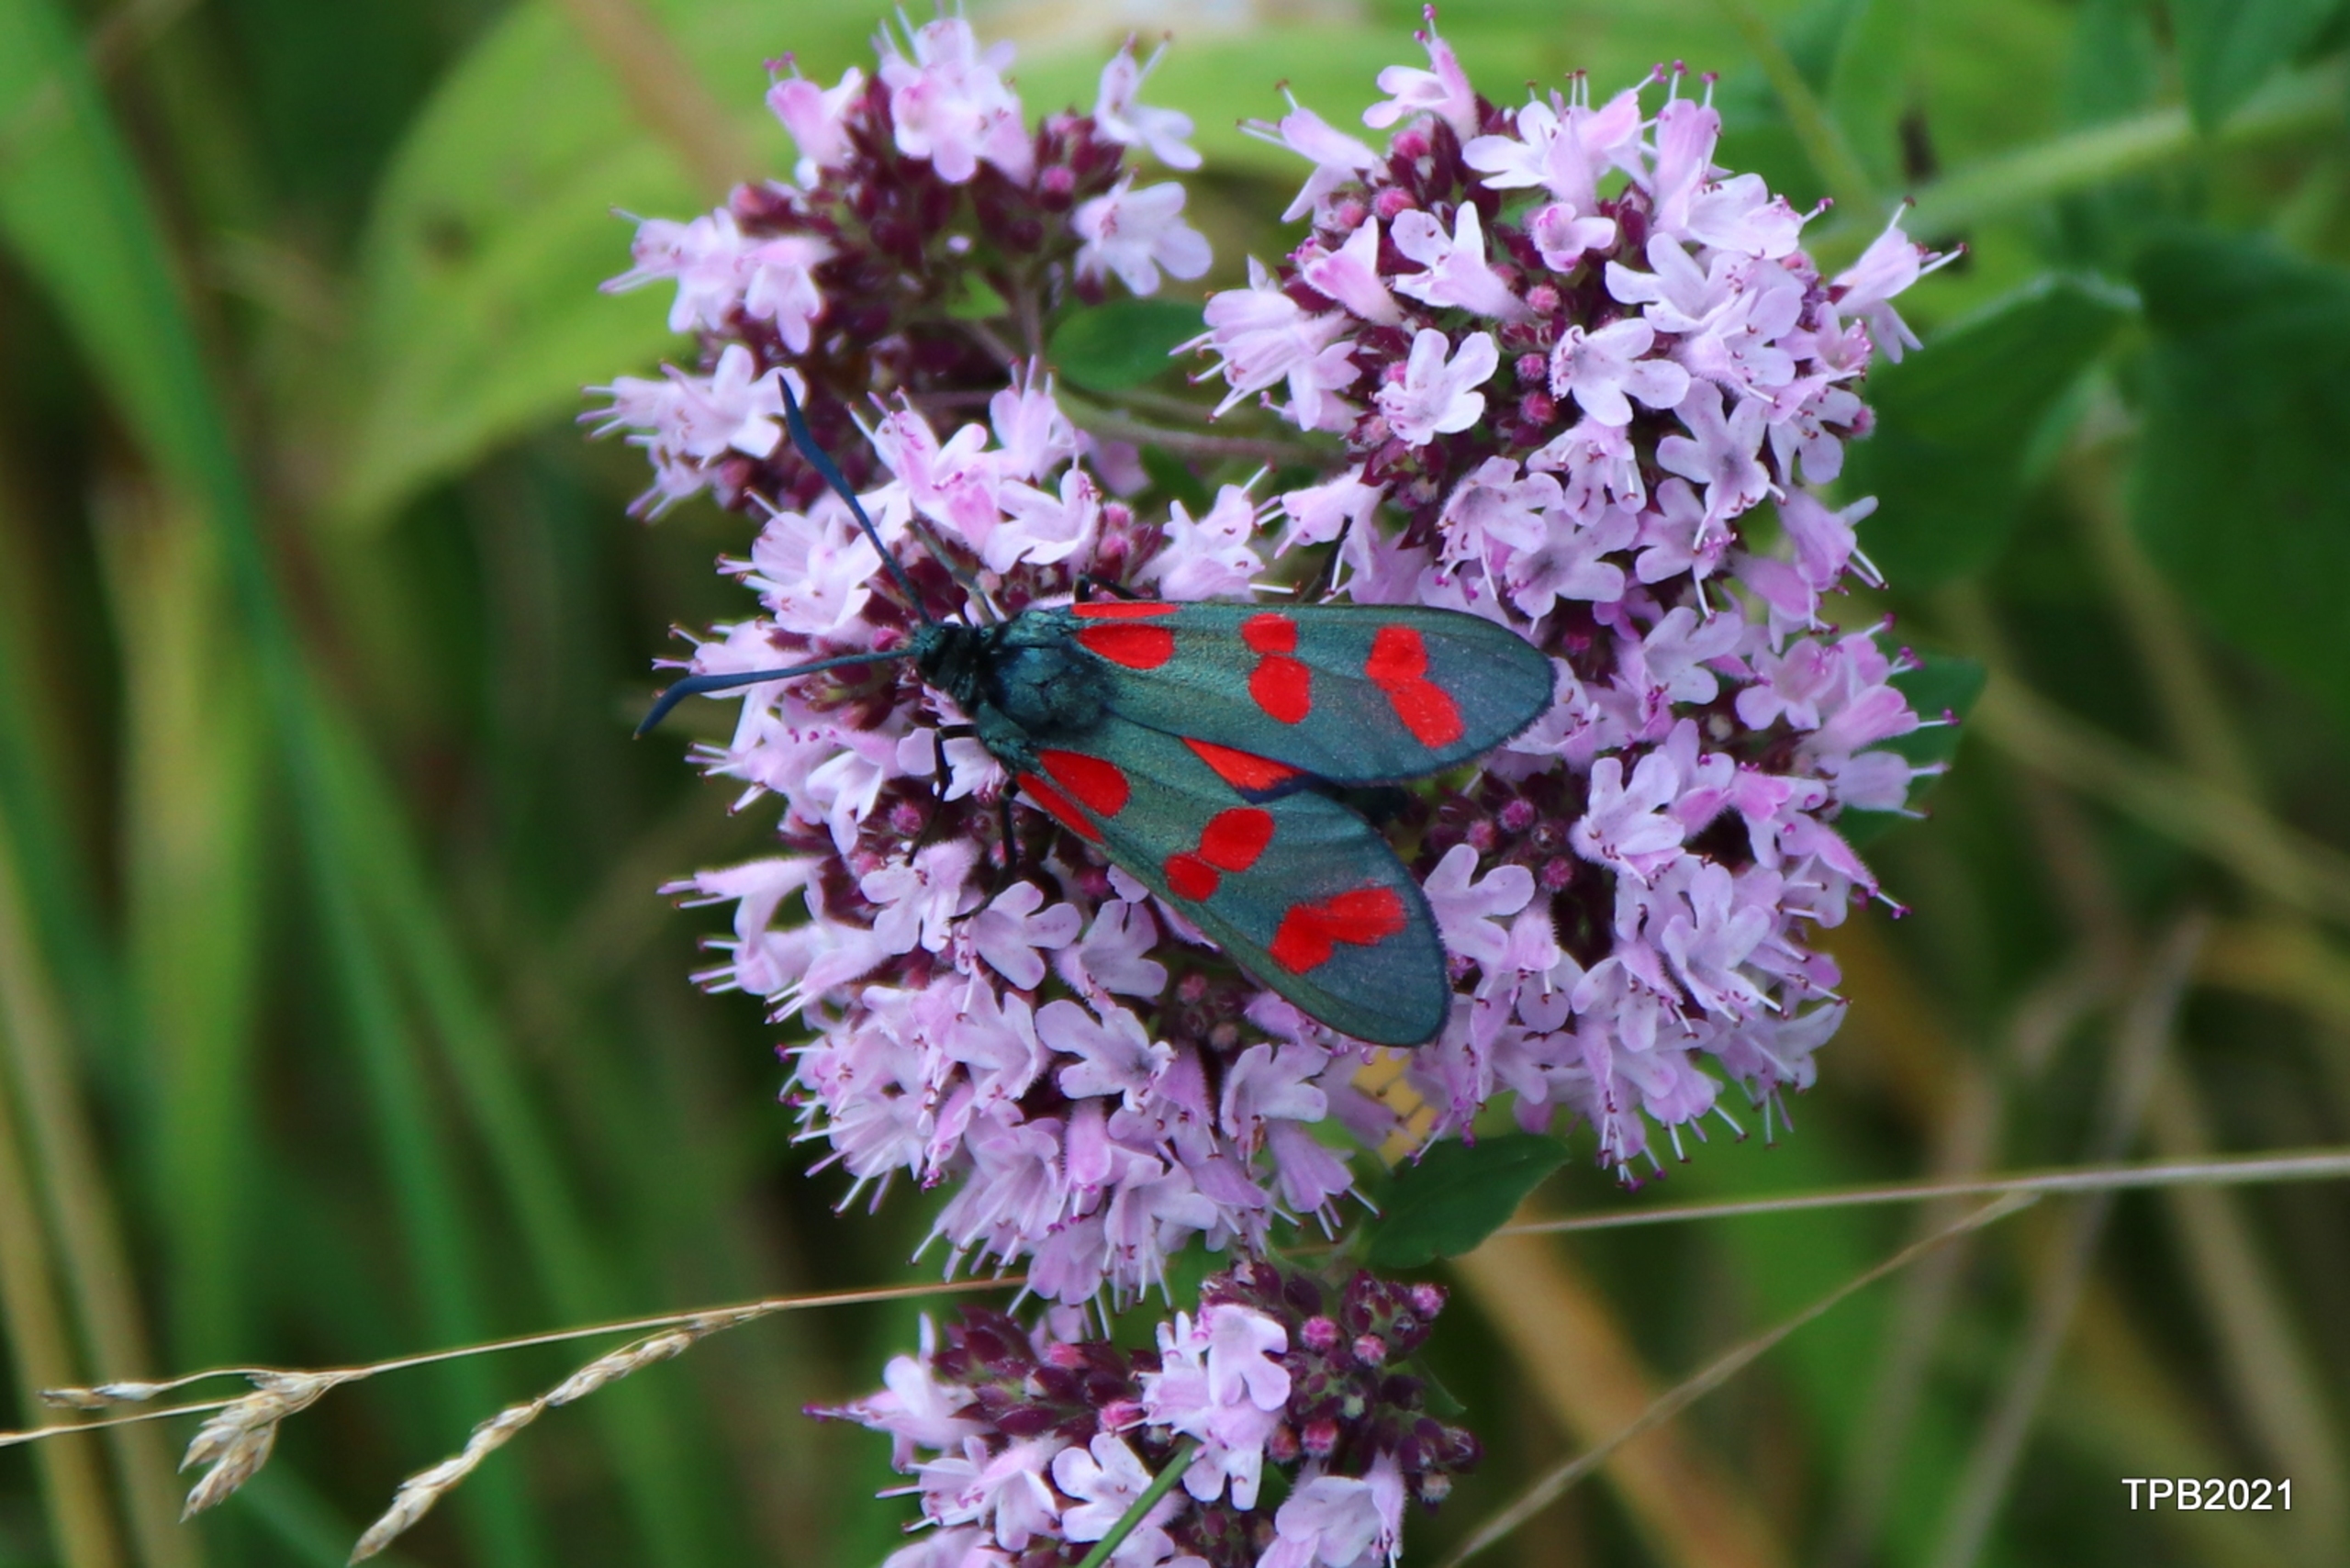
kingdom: Animalia
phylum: Arthropoda
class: Insecta
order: Lepidoptera
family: Zygaenidae
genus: Zygaena
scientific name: Zygaena filipendulae
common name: Seksplettet køllesværmer
